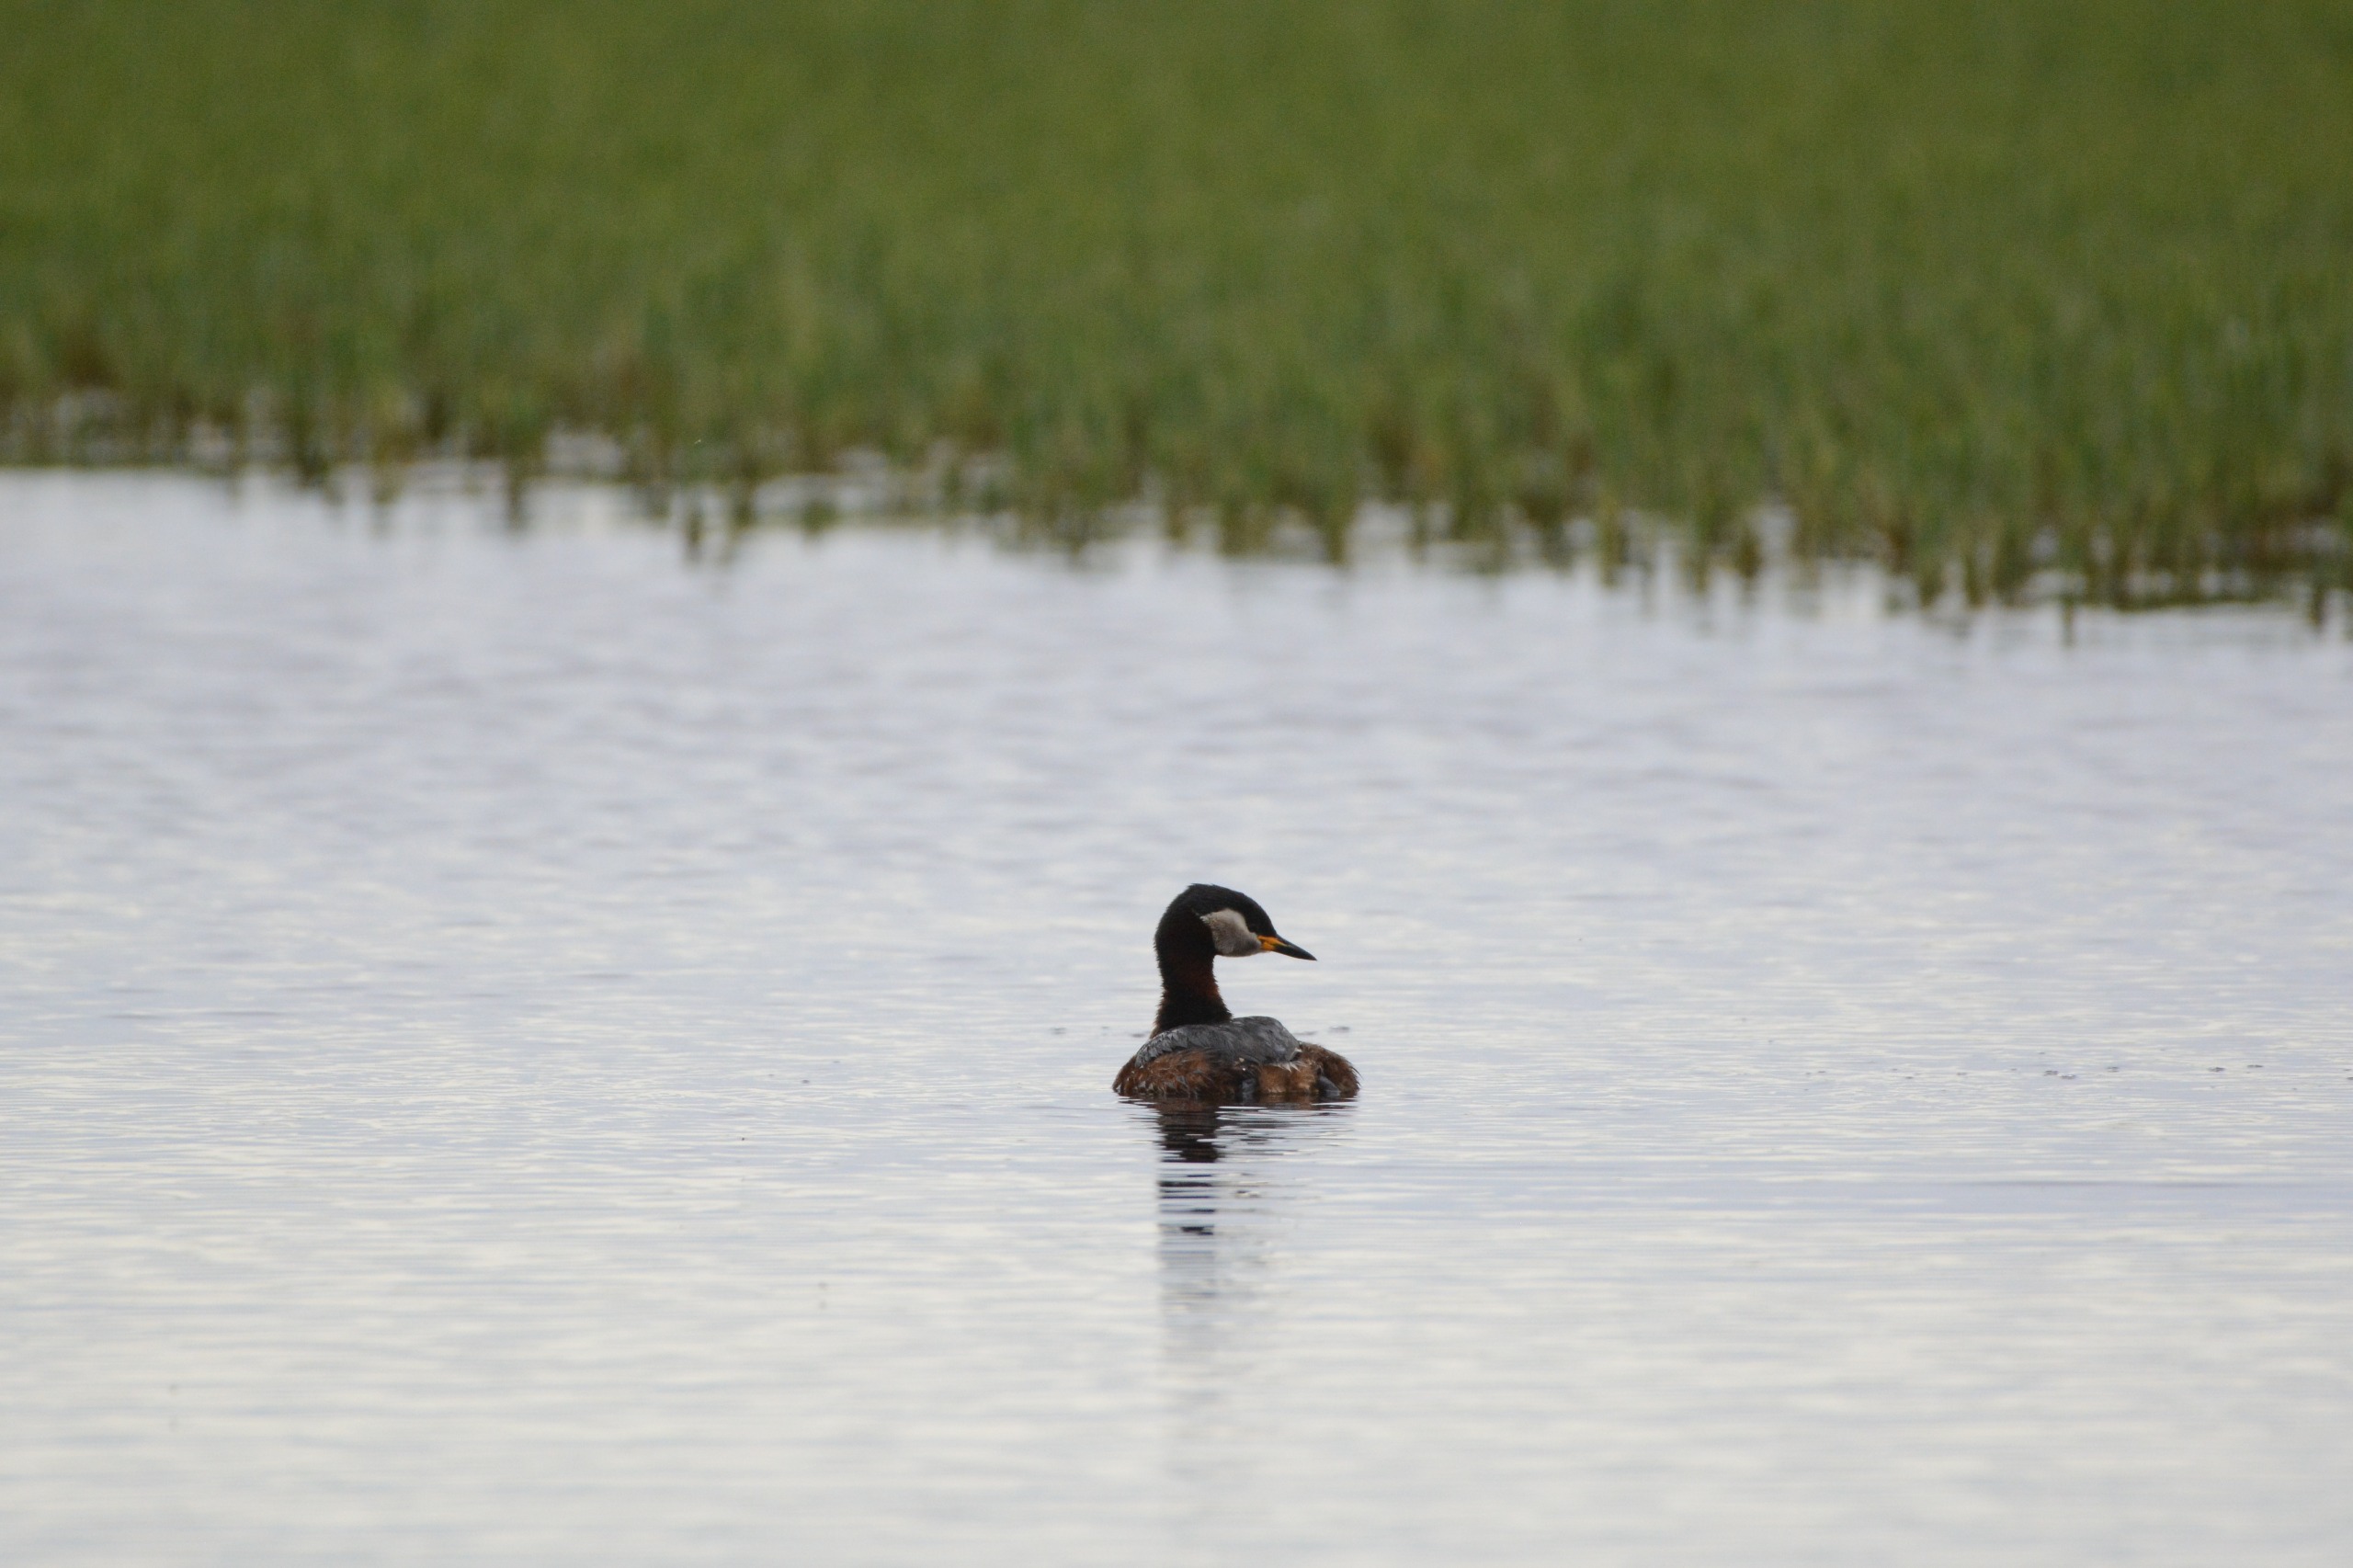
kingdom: Animalia
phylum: Chordata
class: Aves
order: Podicipediformes
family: Podicipedidae
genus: Podiceps
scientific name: Podiceps grisegena
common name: Gråstrubet lappedykker
